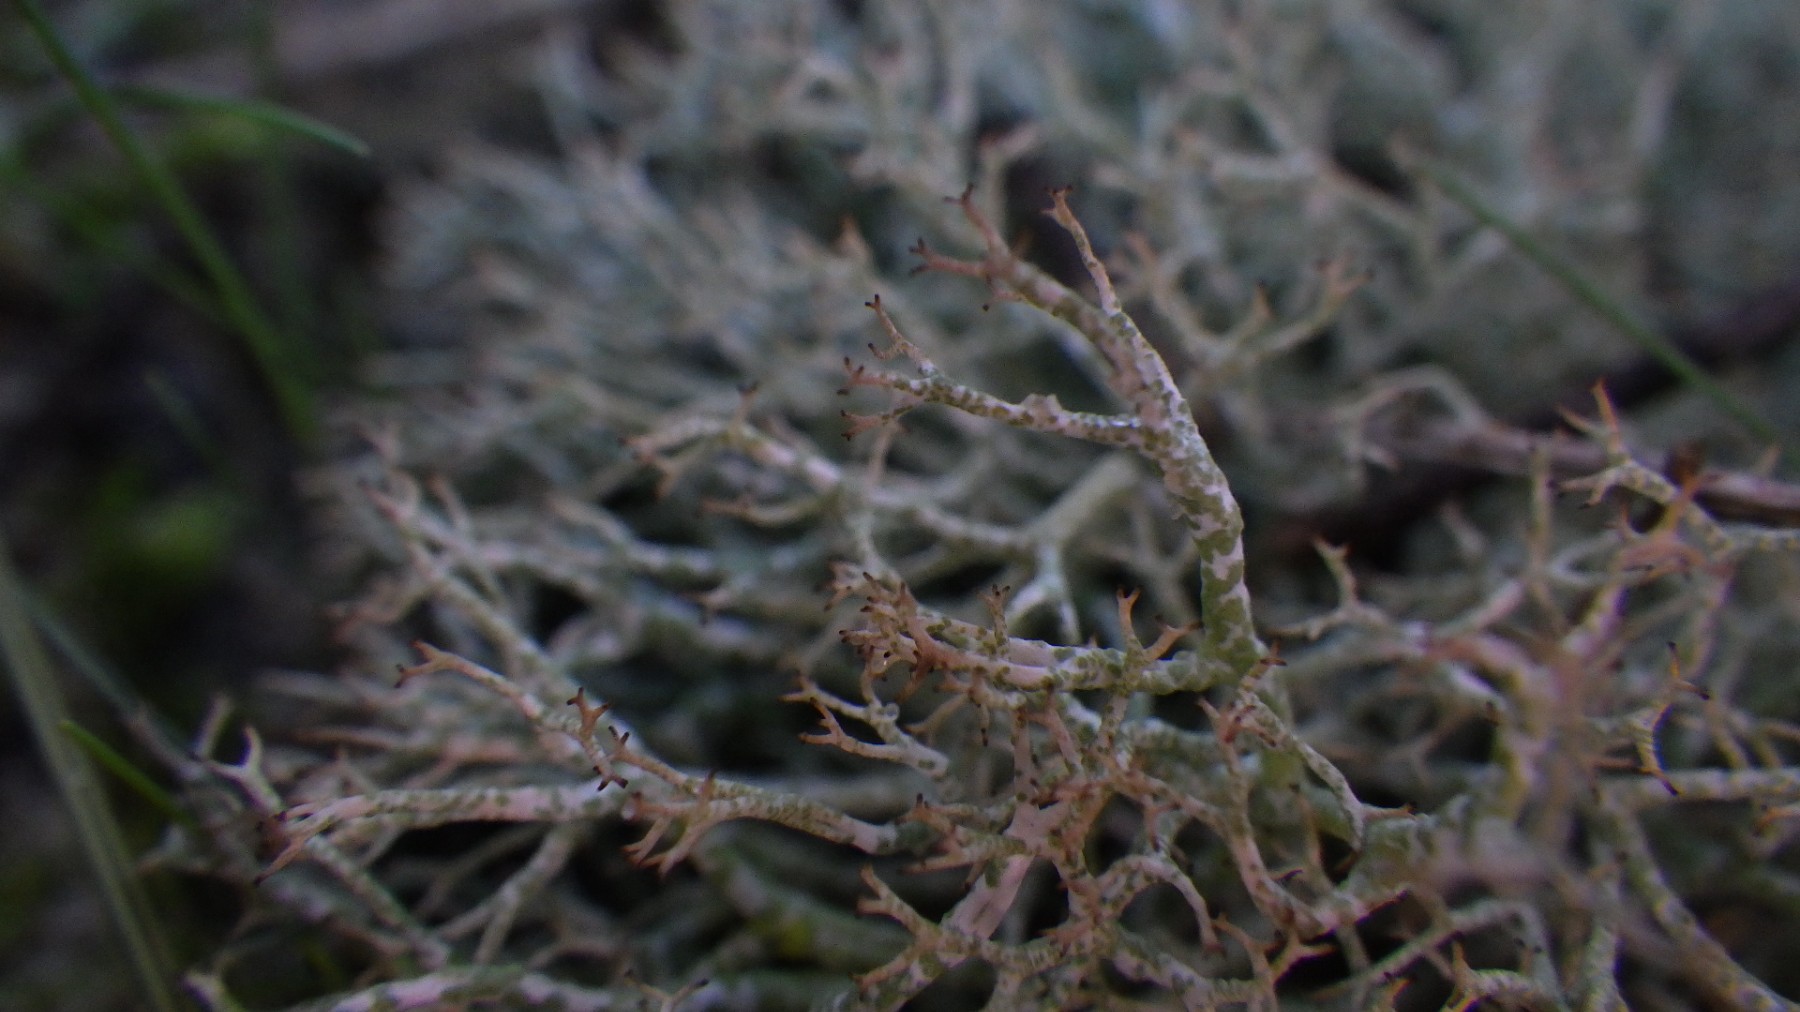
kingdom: Fungi
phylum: Ascomycota
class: Lecanoromycetes
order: Lecanorales
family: Cladoniaceae
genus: Cladonia
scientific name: Cladonia rangiformis
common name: spættet bægerlav
